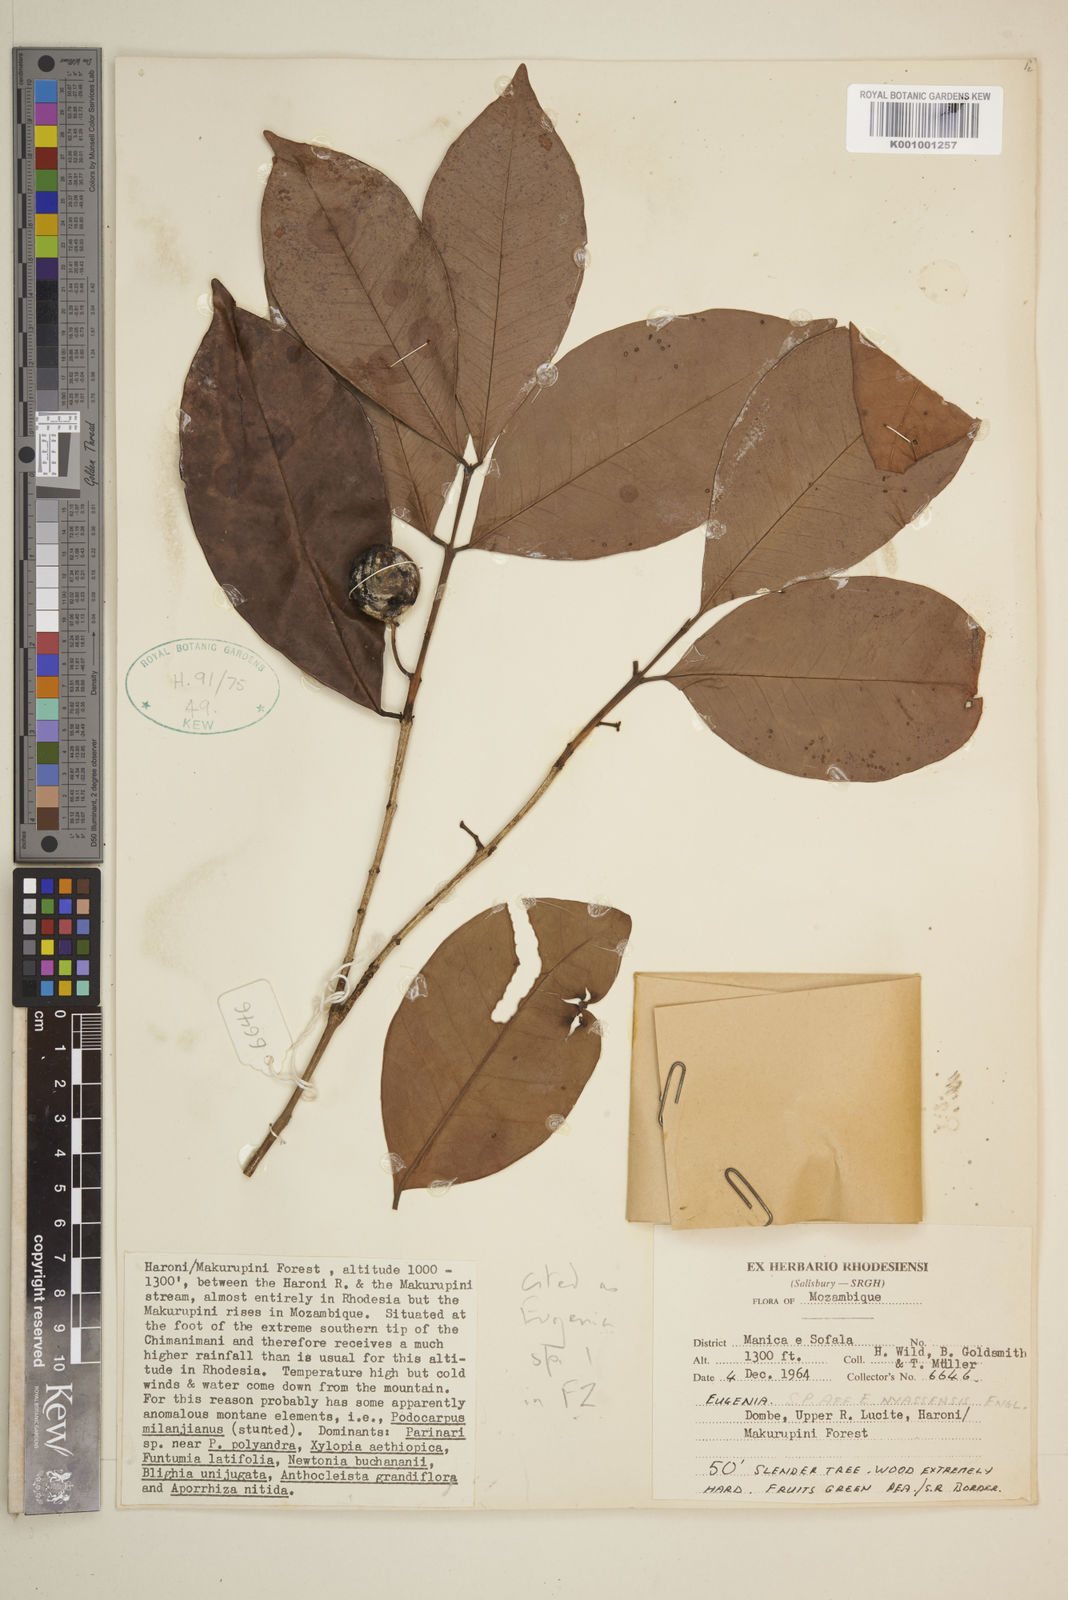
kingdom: Plantae
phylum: Tracheophyta
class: Magnoliopsida
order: Myrtales
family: Myrtaceae
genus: Eugenia
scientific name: Eugenia
